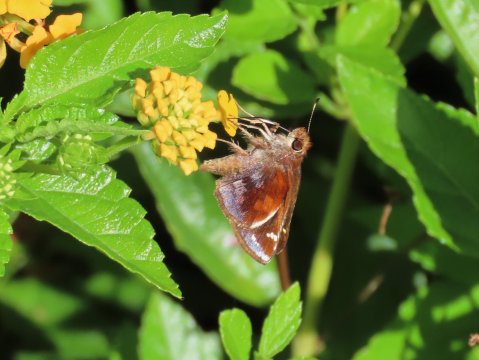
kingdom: Animalia
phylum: Arthropoda
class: Insecta
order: Lepidoptera
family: Hesperiidae
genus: Lon
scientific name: Lon zabulon
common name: Zabulon Skipper
